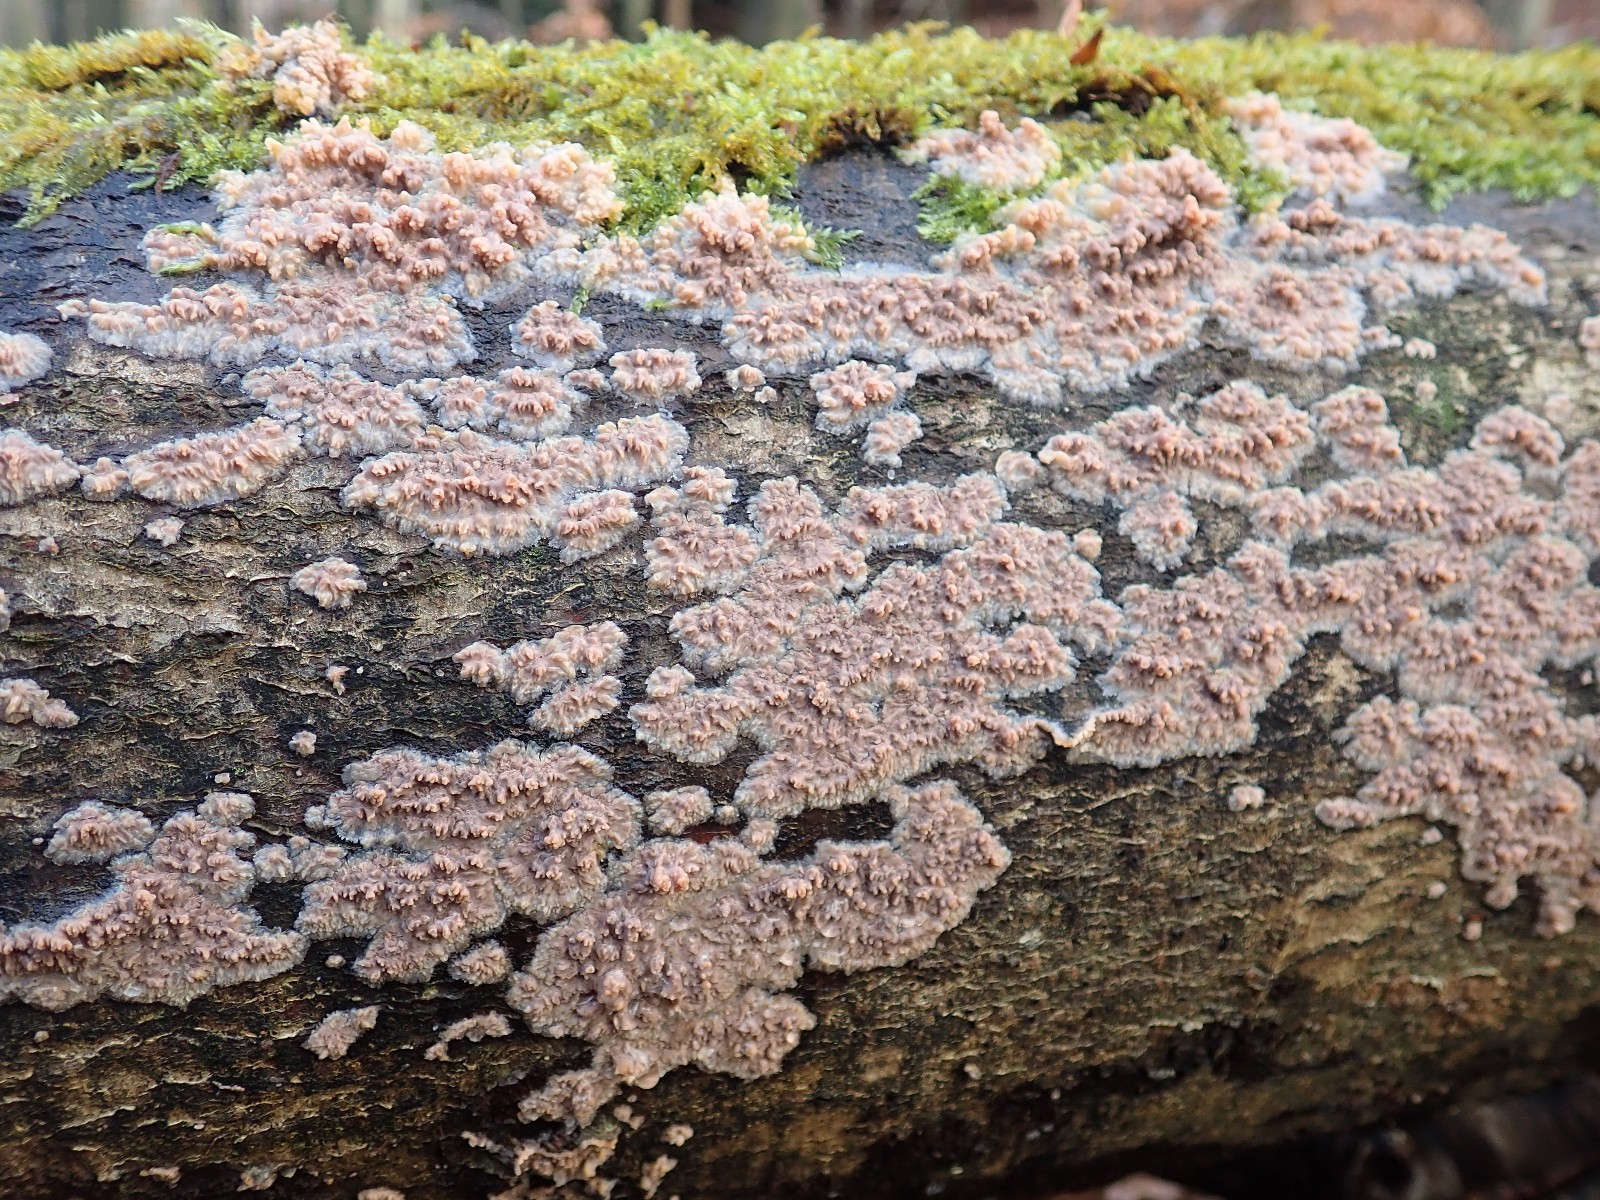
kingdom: Fungi
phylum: Basidiomycota
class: Agaricomycetes
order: Polyporales
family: Meruliaceae
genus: Phlebia
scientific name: Phlebia radiata
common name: stråle-åresvamp
